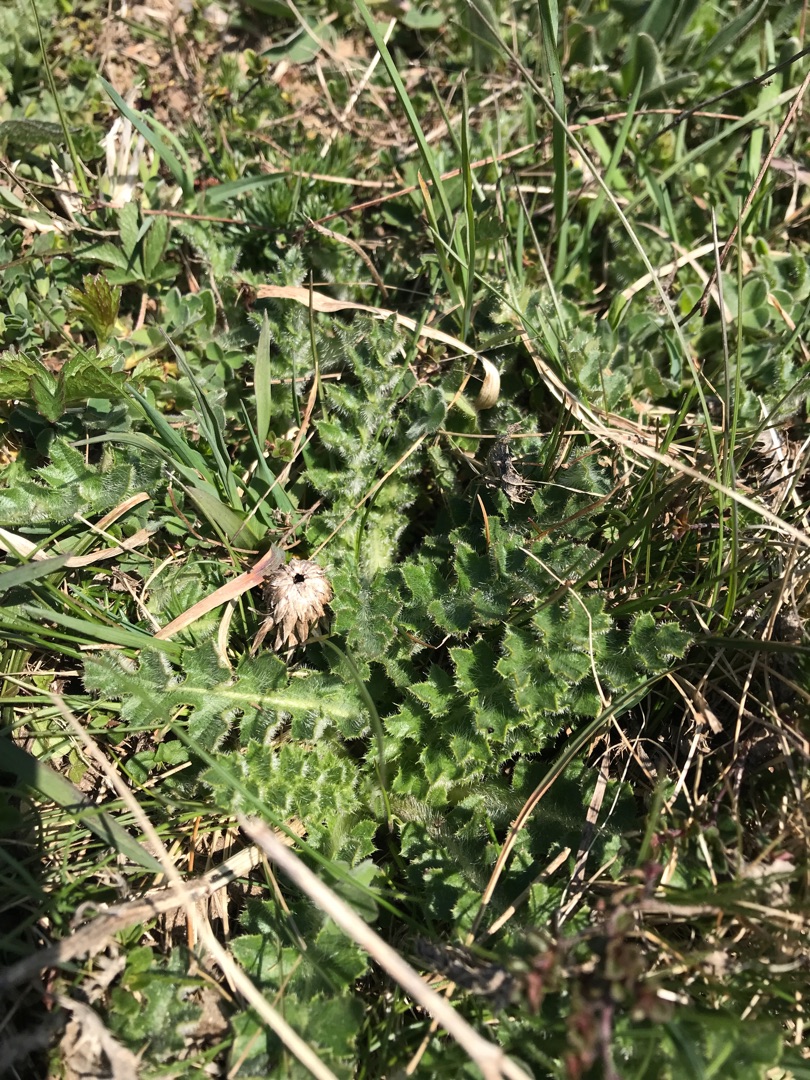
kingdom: Plantae
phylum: Tracheophyta
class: Magnoliopsida
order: Asterales
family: Asteraceae
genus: Cirsium
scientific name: Cirsium acaule
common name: Lav tidsel
